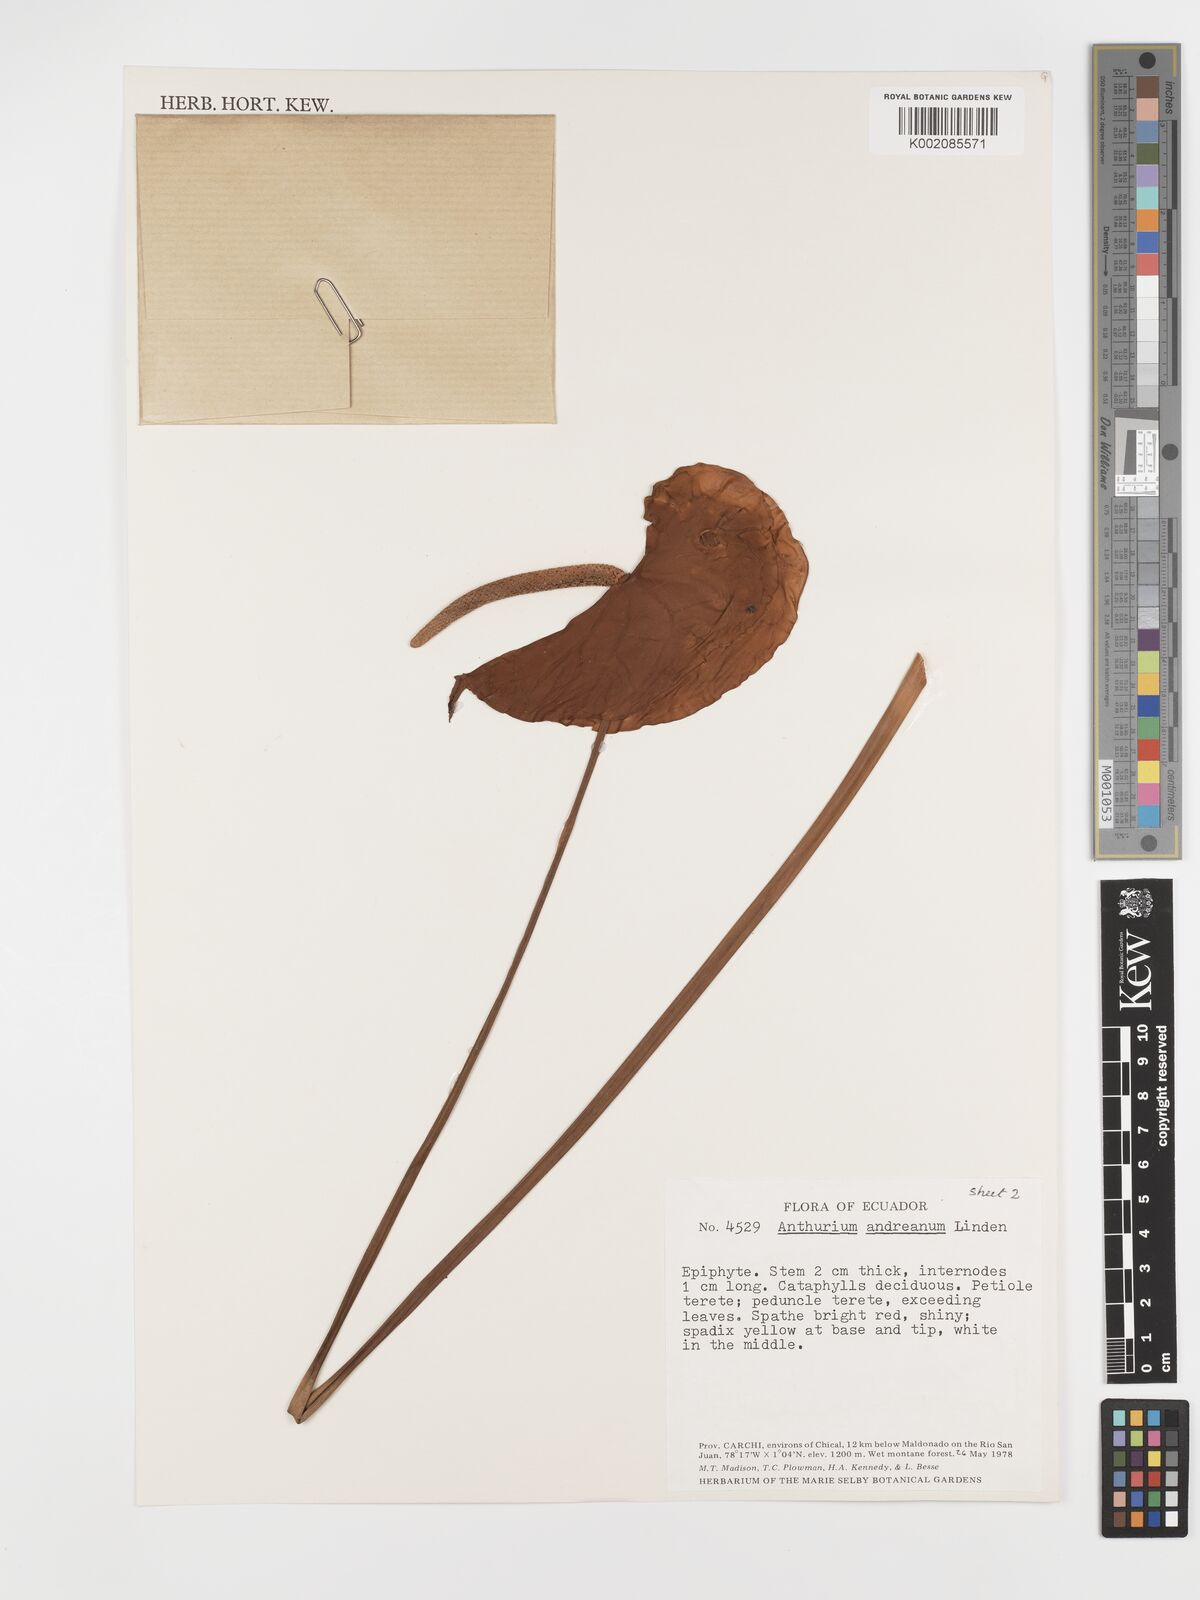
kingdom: Plantae
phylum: Tracheophyta
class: Liliopsida
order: Alismatales
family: Araceae
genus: Anthurium
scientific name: Anthurium andraeanum
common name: Flamingo-flower
